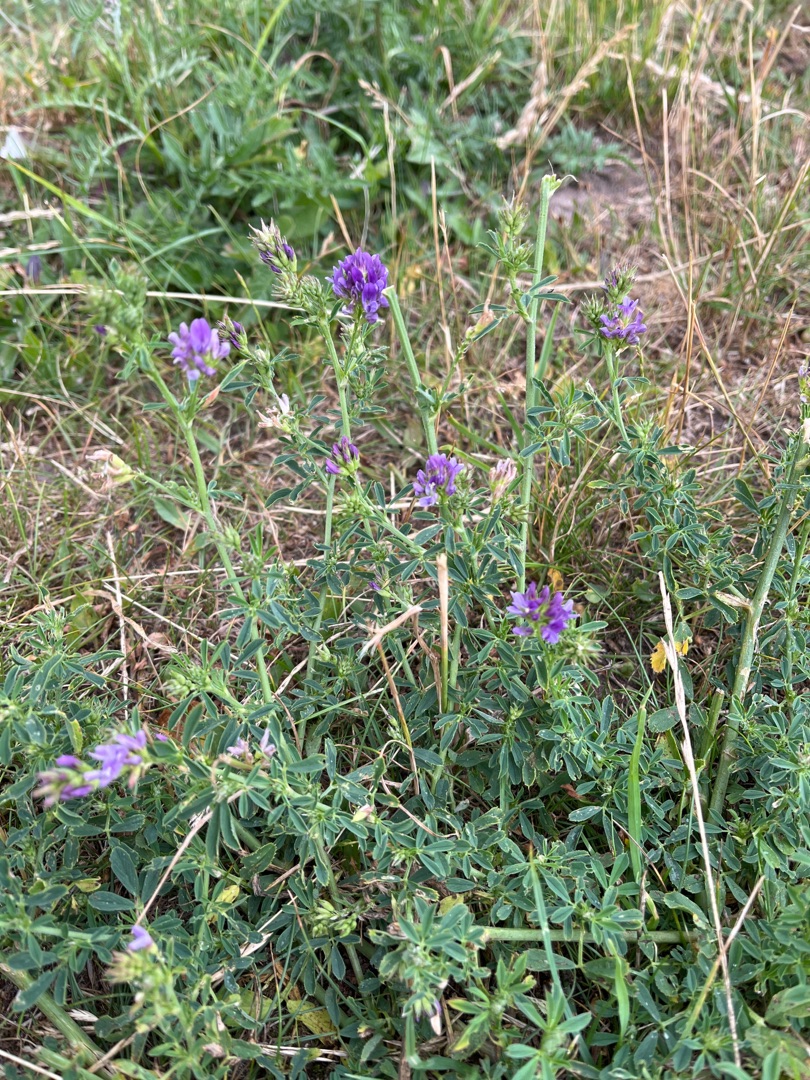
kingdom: Plantae
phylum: Tracheophyta
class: Magnoliopsida
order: Fabales
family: Fabaceae
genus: Medicago
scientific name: Medicago sativa
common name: Lucerne
